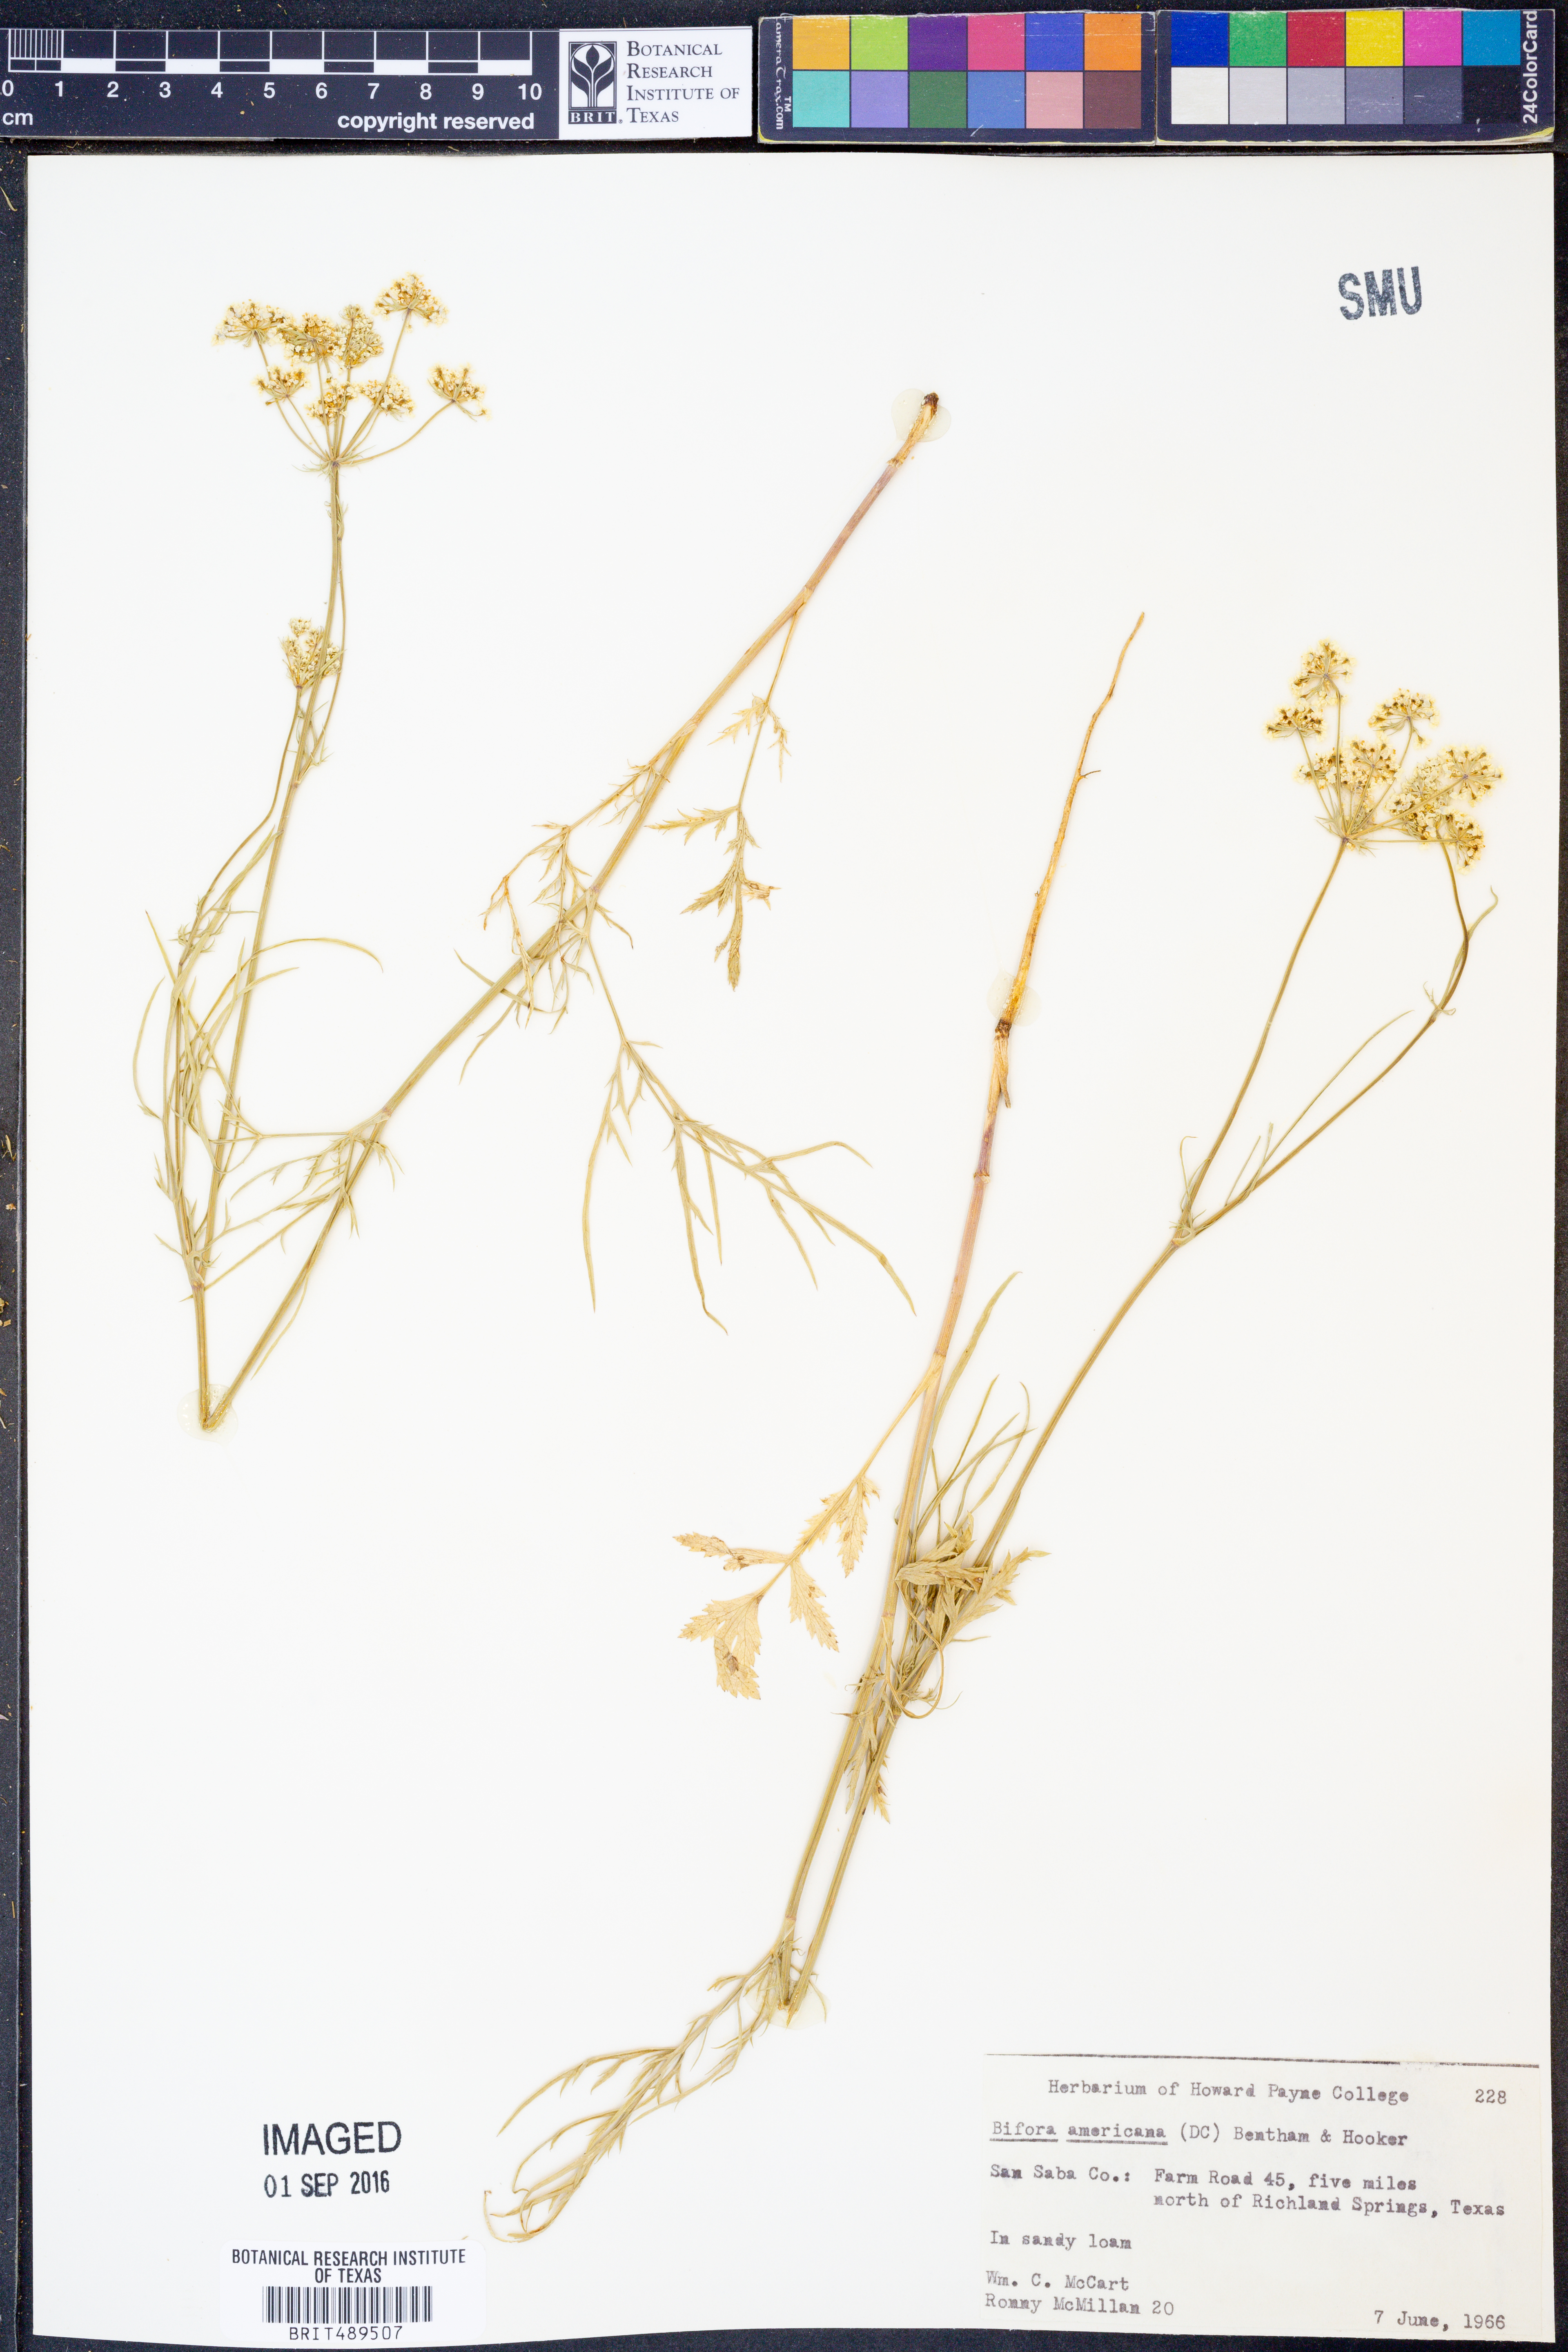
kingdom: Plantae
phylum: Tracheophyta
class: Magnoliopsida
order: Apiales
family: Apiaceae
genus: Atrema
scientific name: Atrema americanum
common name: Prairie-bishop
